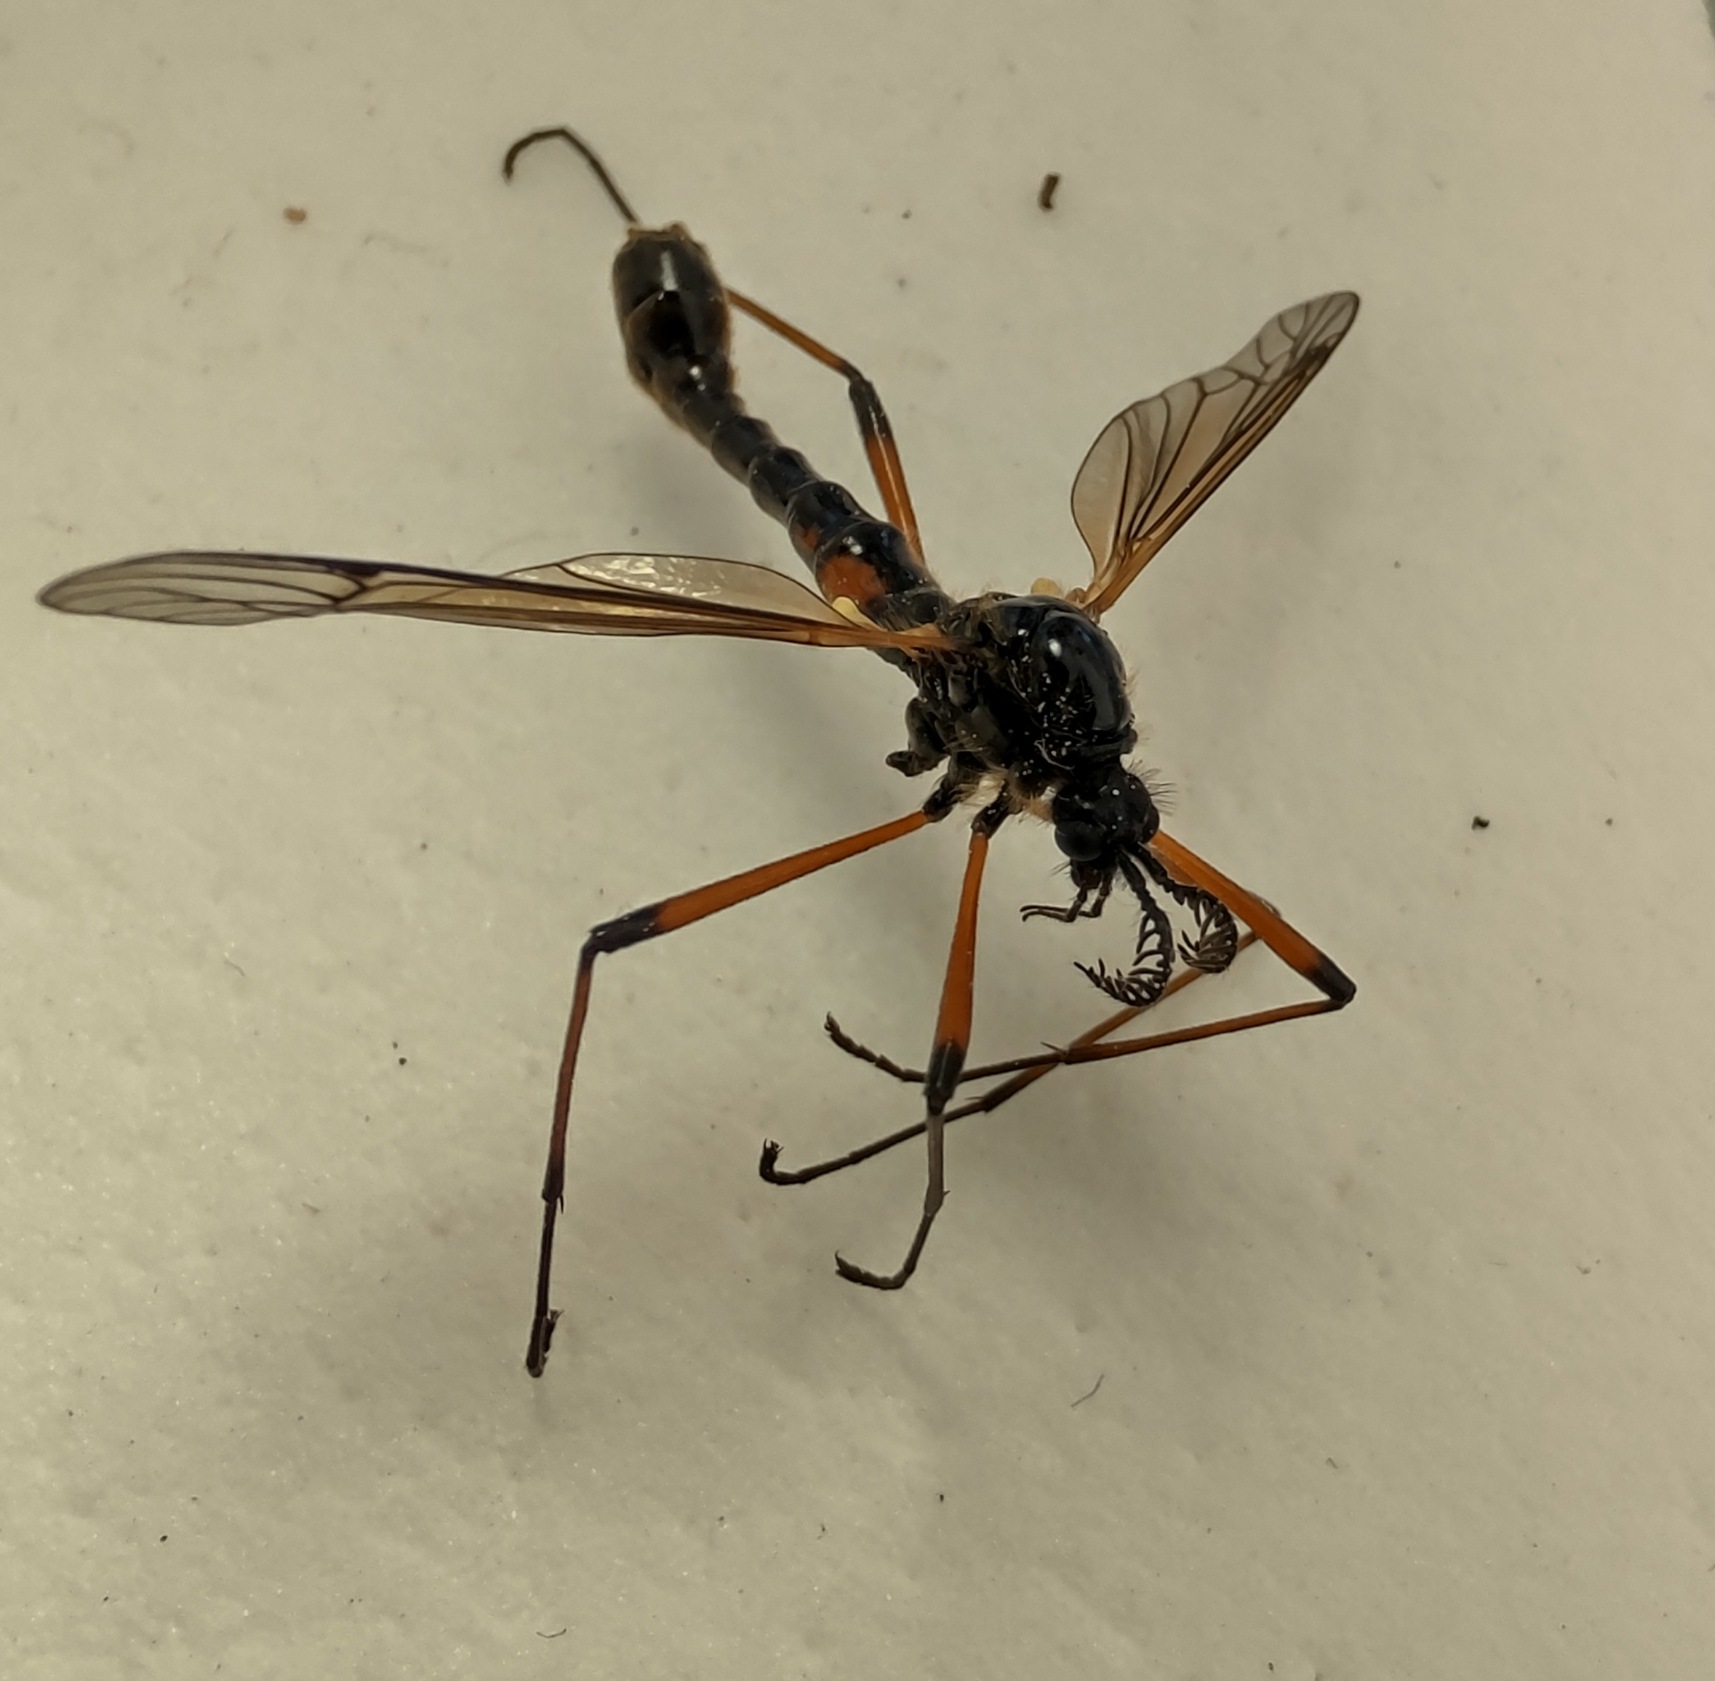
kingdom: Animalia
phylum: Arthropoda
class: Insecta
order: Diptera
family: Tipulidae
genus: Tanyptera
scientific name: Tanyptera nigricornis
